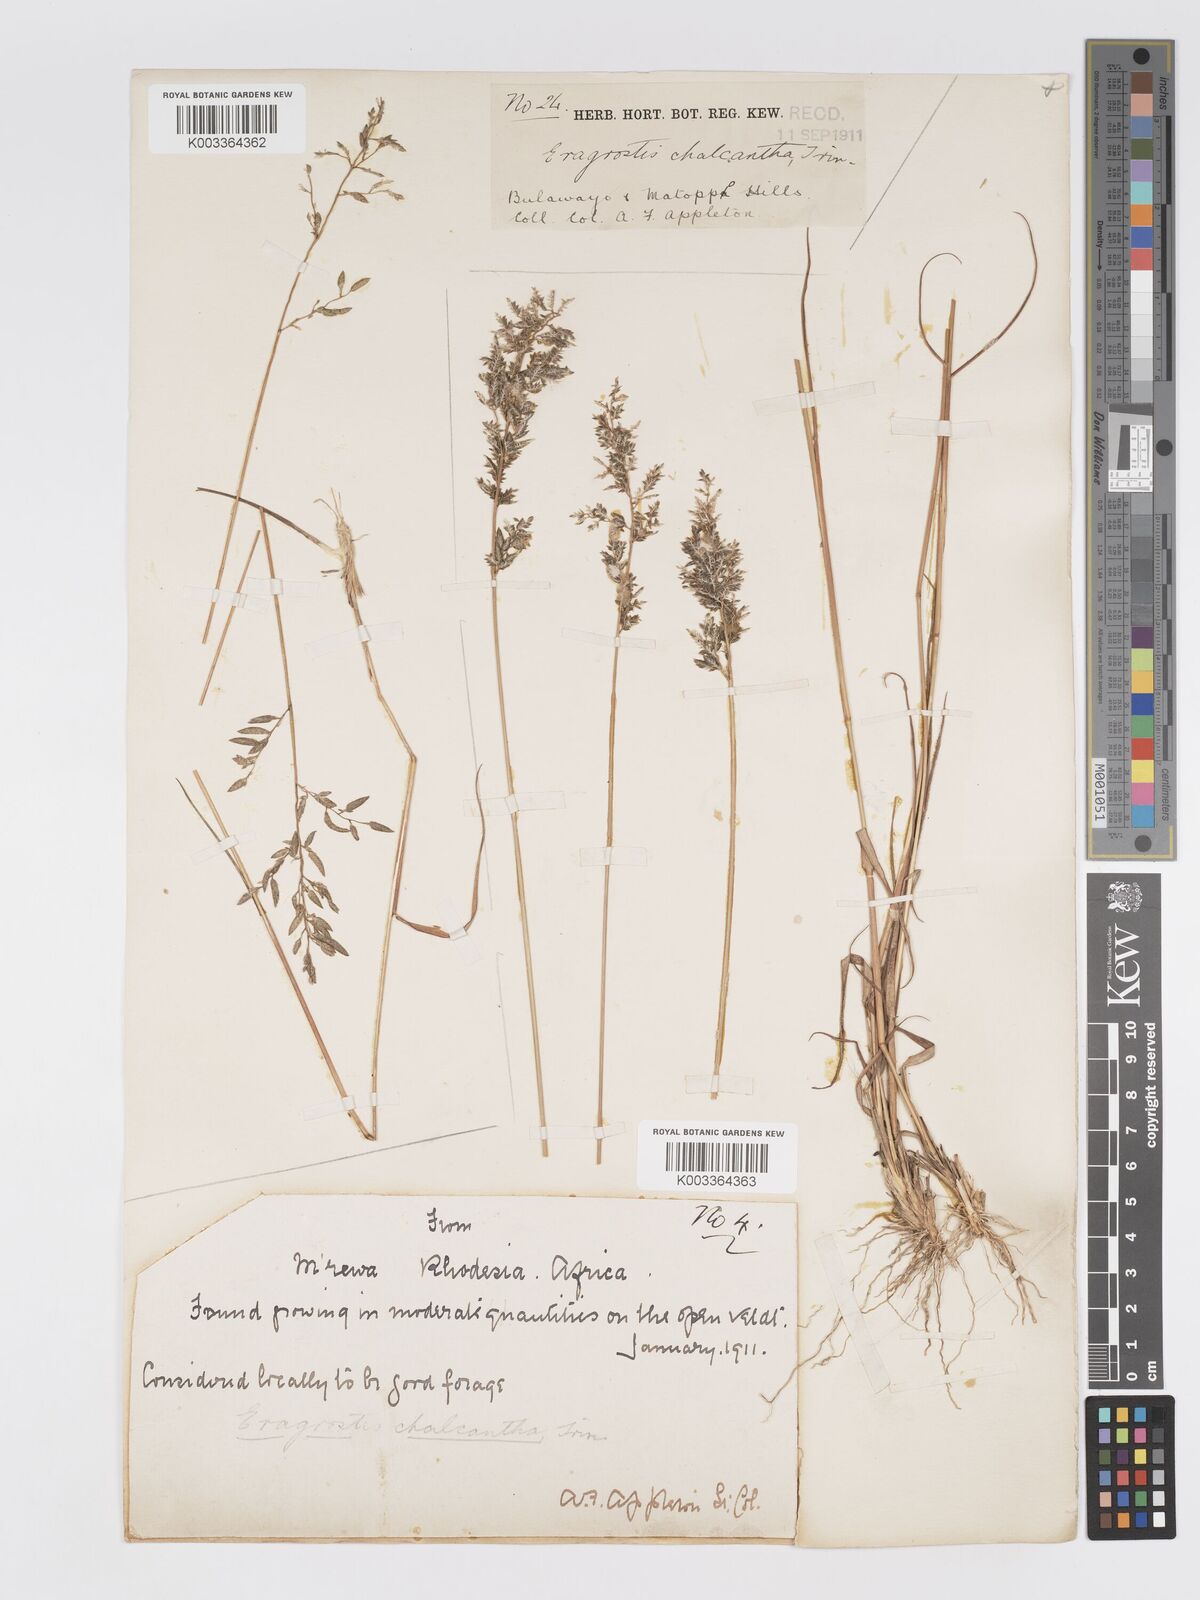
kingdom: Plantae
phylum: Tracheophyta
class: Liliopsida
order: Poales
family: Poaceae
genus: Eragrostis
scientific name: Eragrostis racemosa
